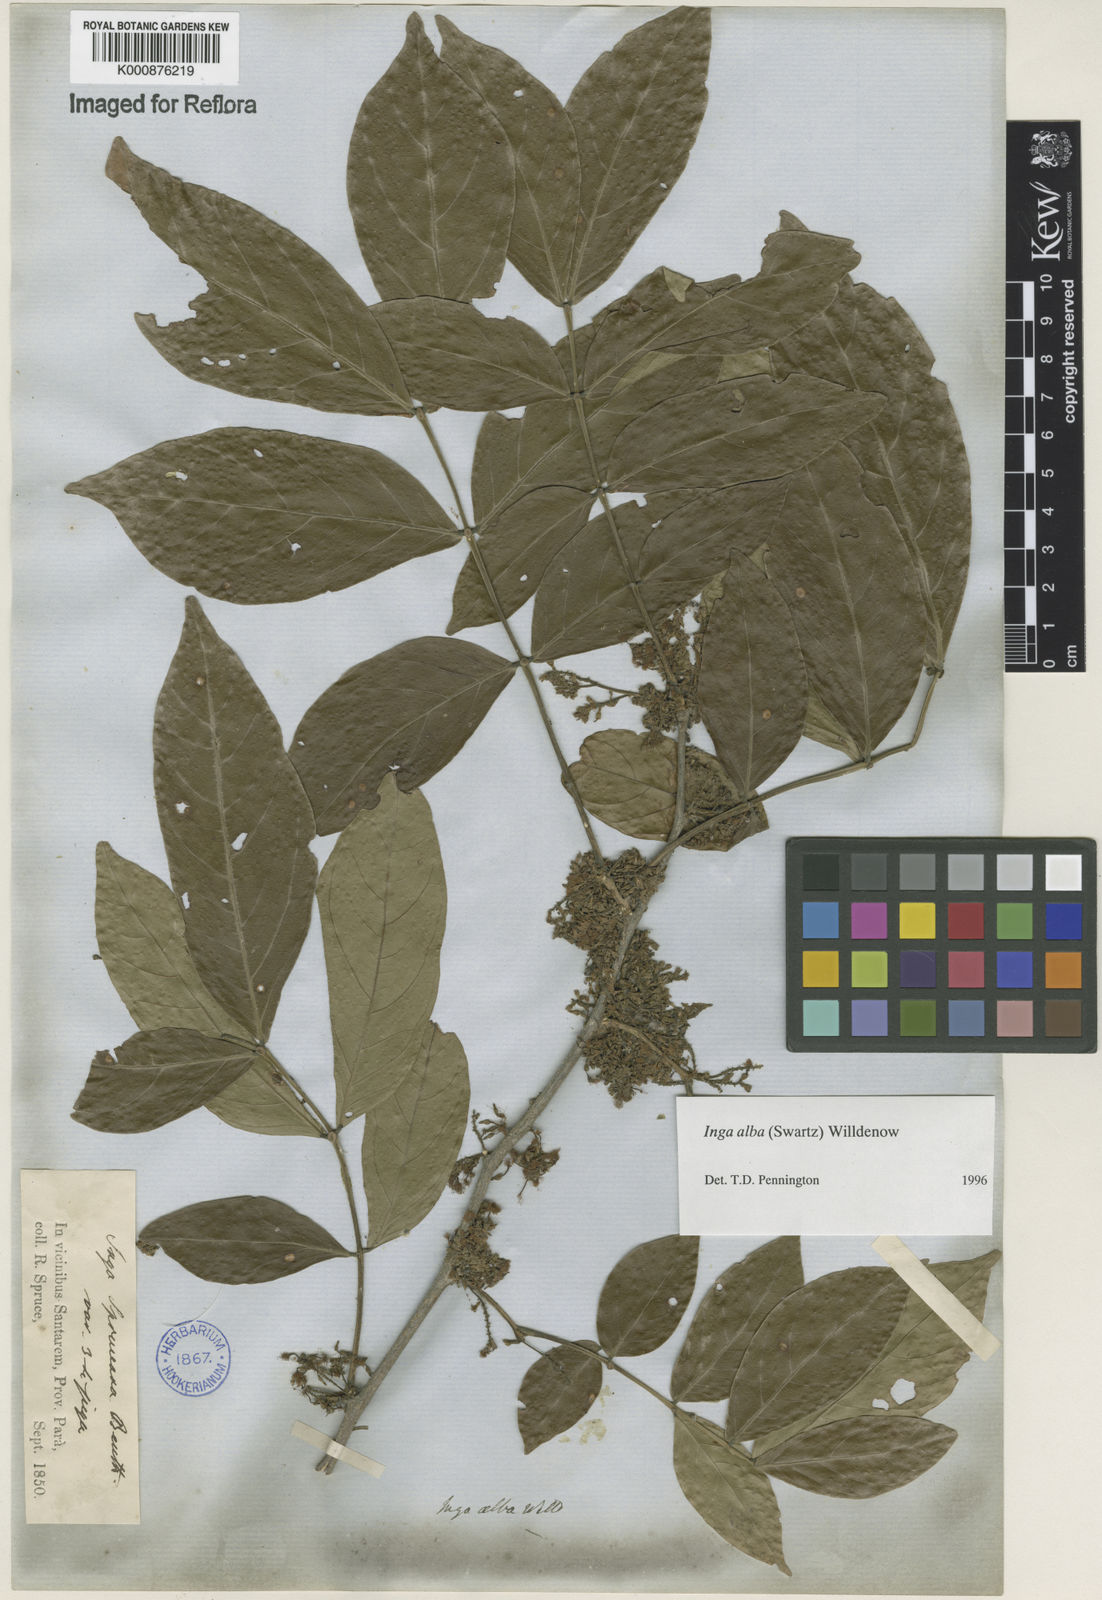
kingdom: Plantae
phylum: Tracheophyta
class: Magnoliopsida
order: Fabales
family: Fabaceae
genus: Inga
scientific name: Inga alba
